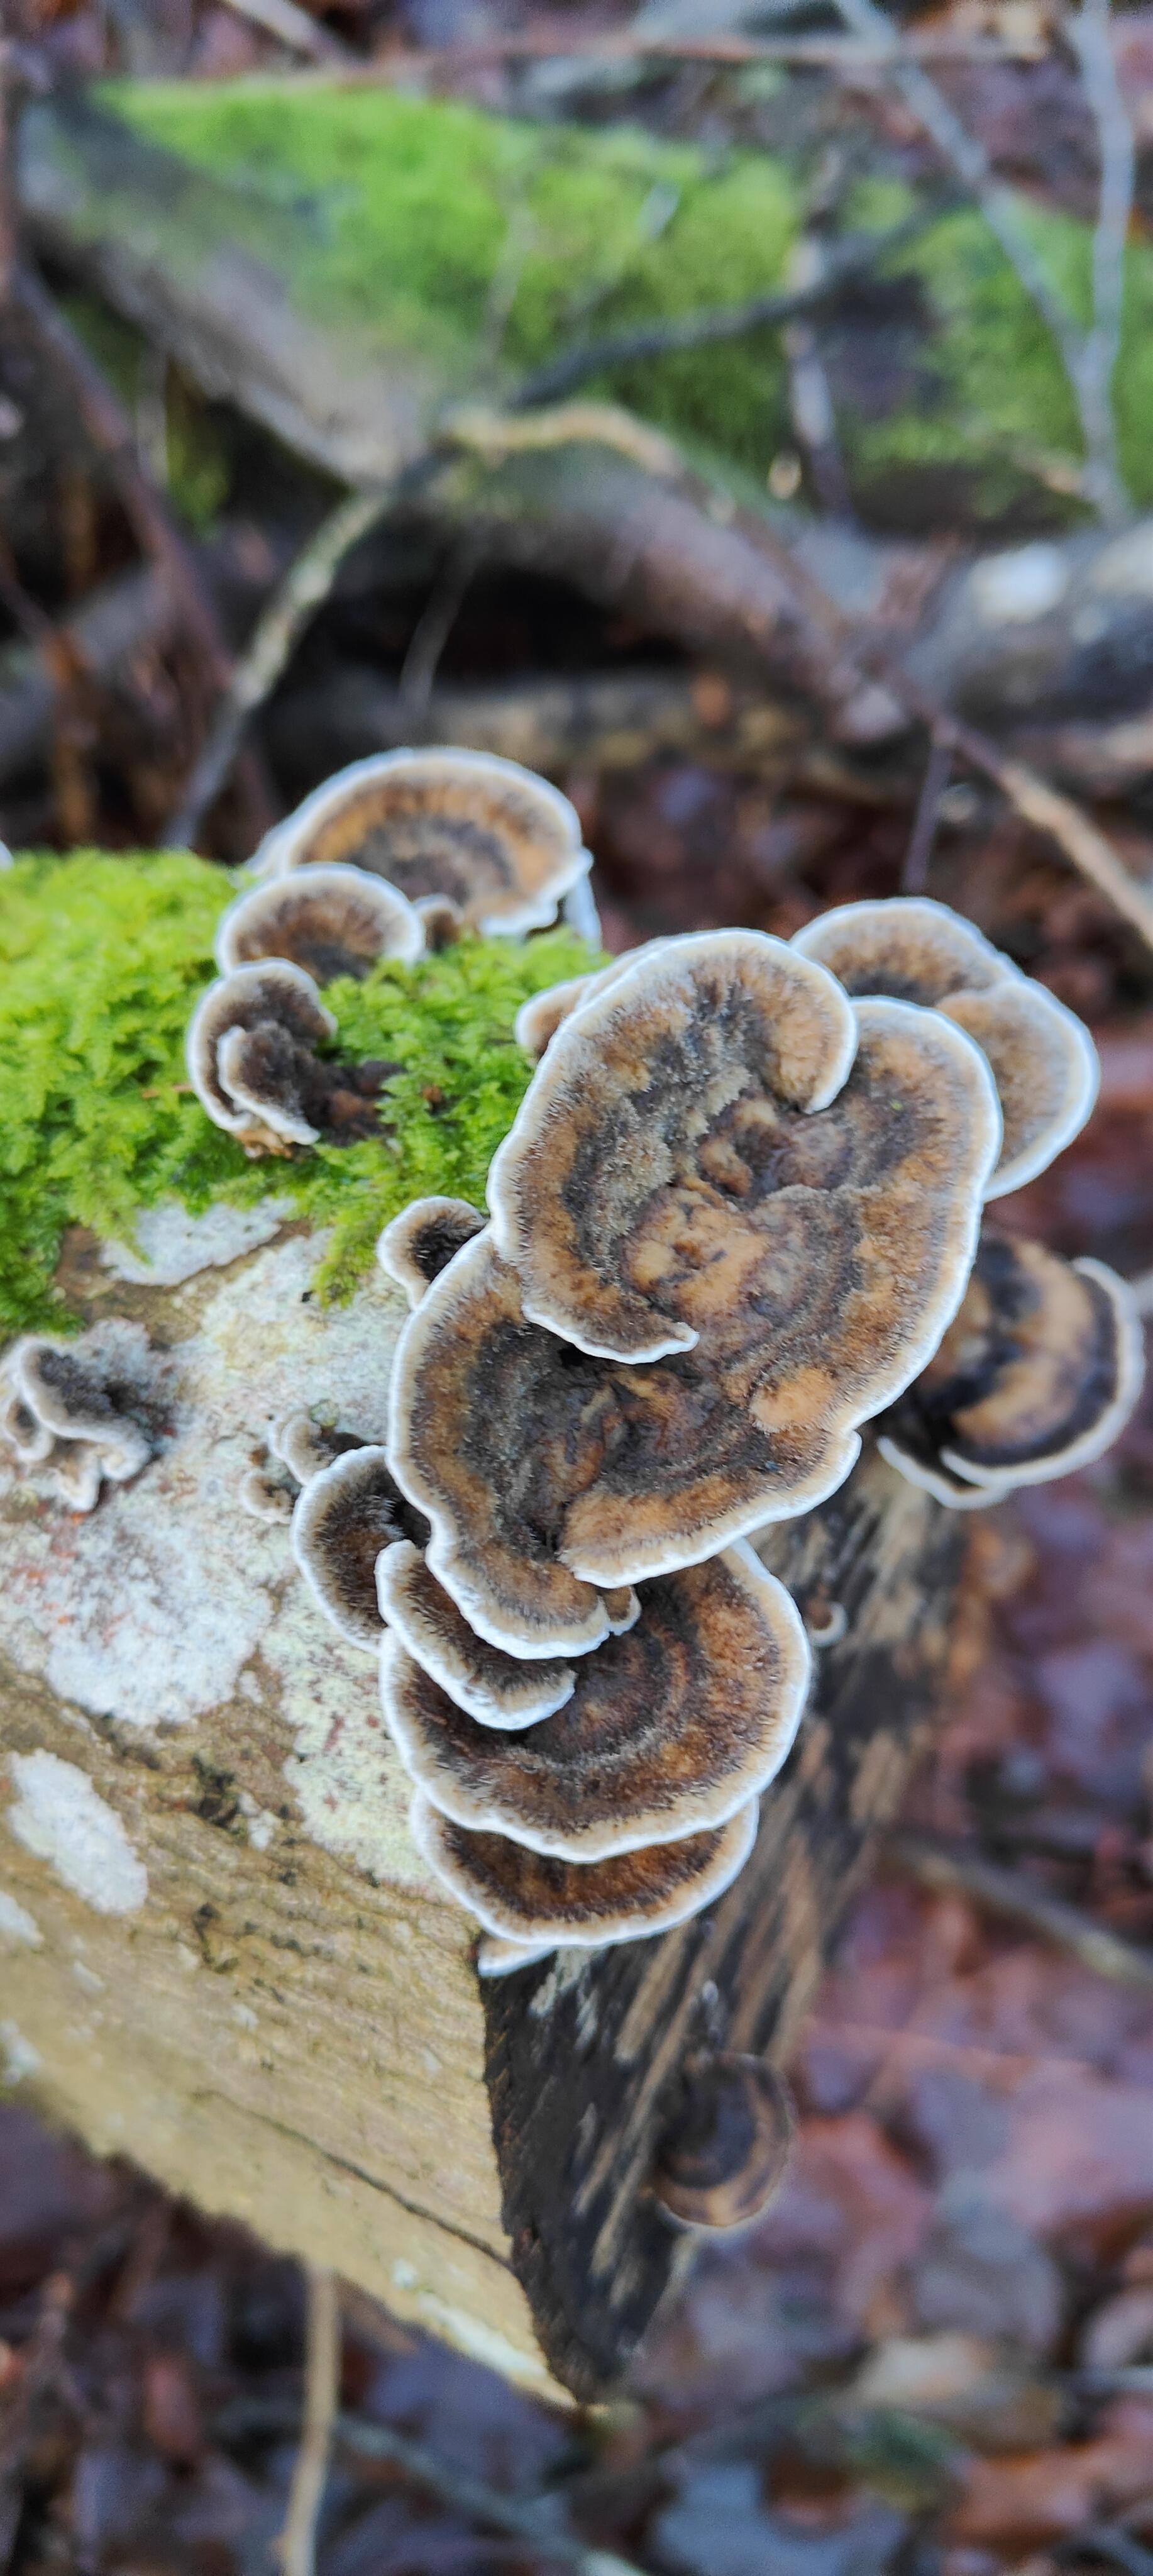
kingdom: Fungi
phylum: Basidiomycota
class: Agaricomycetes
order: Polyporales
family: Phanerochaetaceae
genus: Bjerkandera
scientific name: Bjerkandera adusta
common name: sveden sodporesvamp
